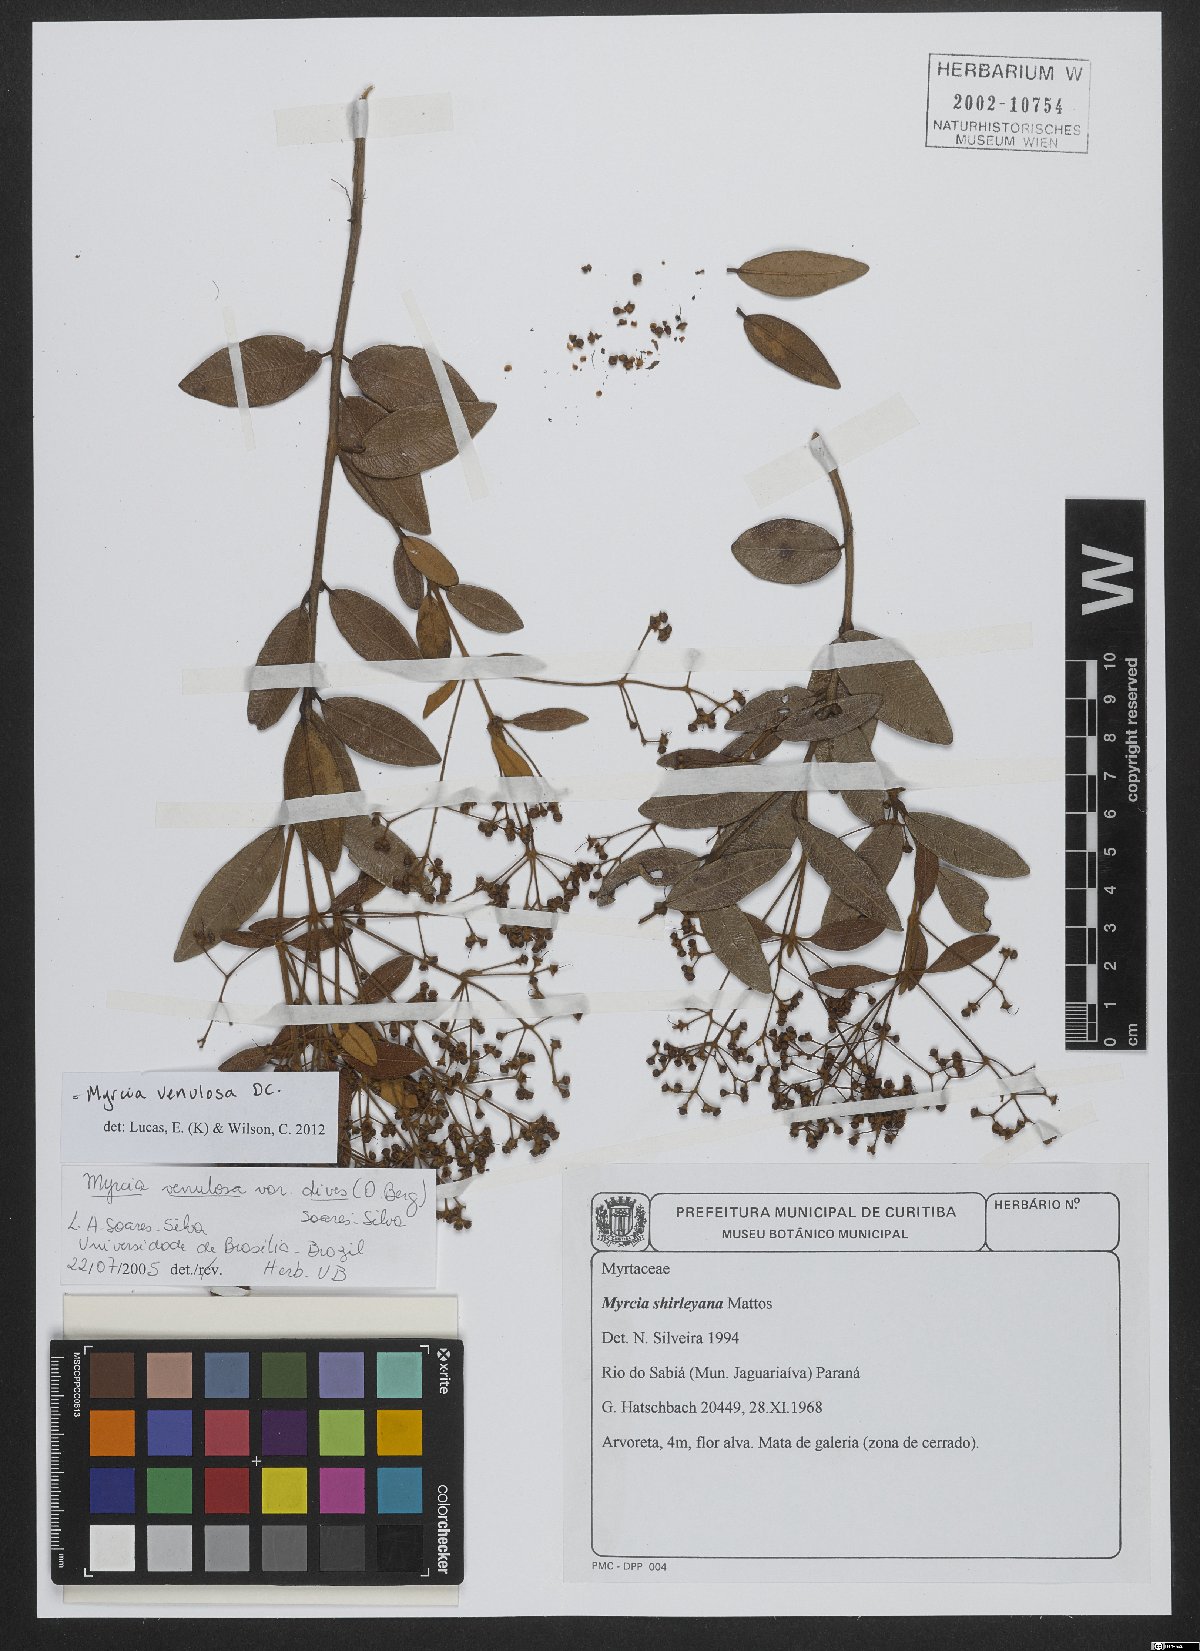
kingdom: Plantae
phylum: Tracheophyta
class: Magnoliopsida
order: Myrtales
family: Myrtaceae
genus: Myrcia
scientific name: Myrcia venulosa
